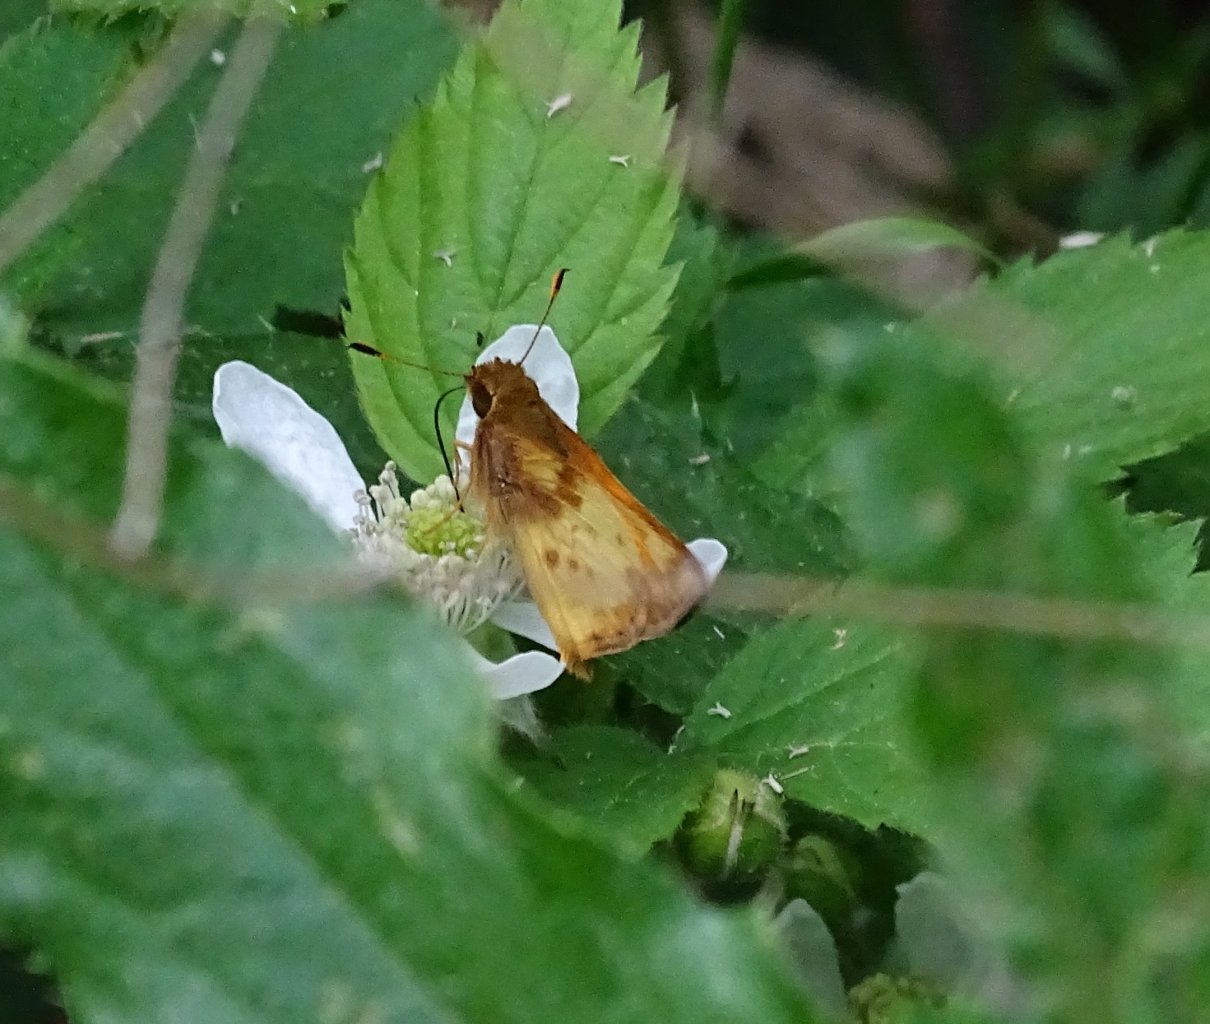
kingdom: Animalia
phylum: Arthropoda
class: Insecta
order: Lepidoptera
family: Hesperiidae
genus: Lon
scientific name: Lon zabulon
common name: Zabulon Skipper
